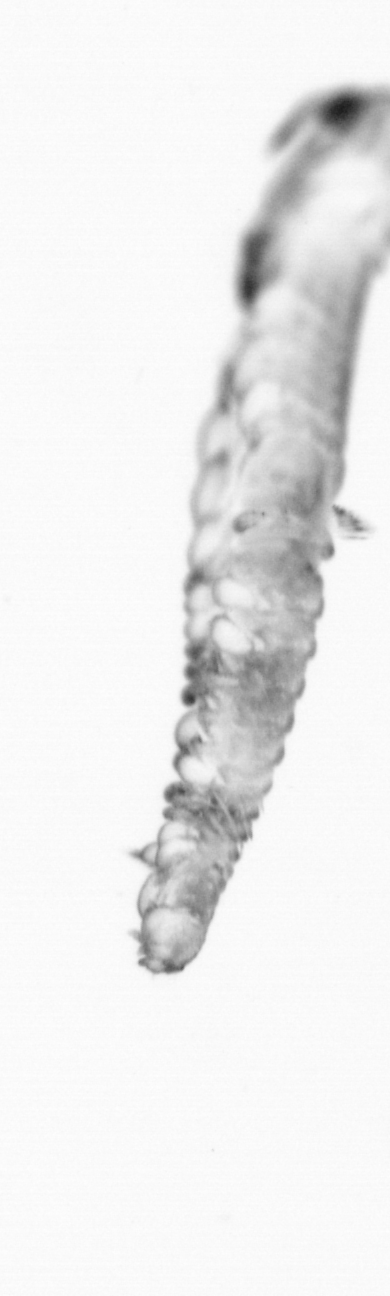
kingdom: Animalia
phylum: Annelida
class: Polychaeta
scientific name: Polychaeta
